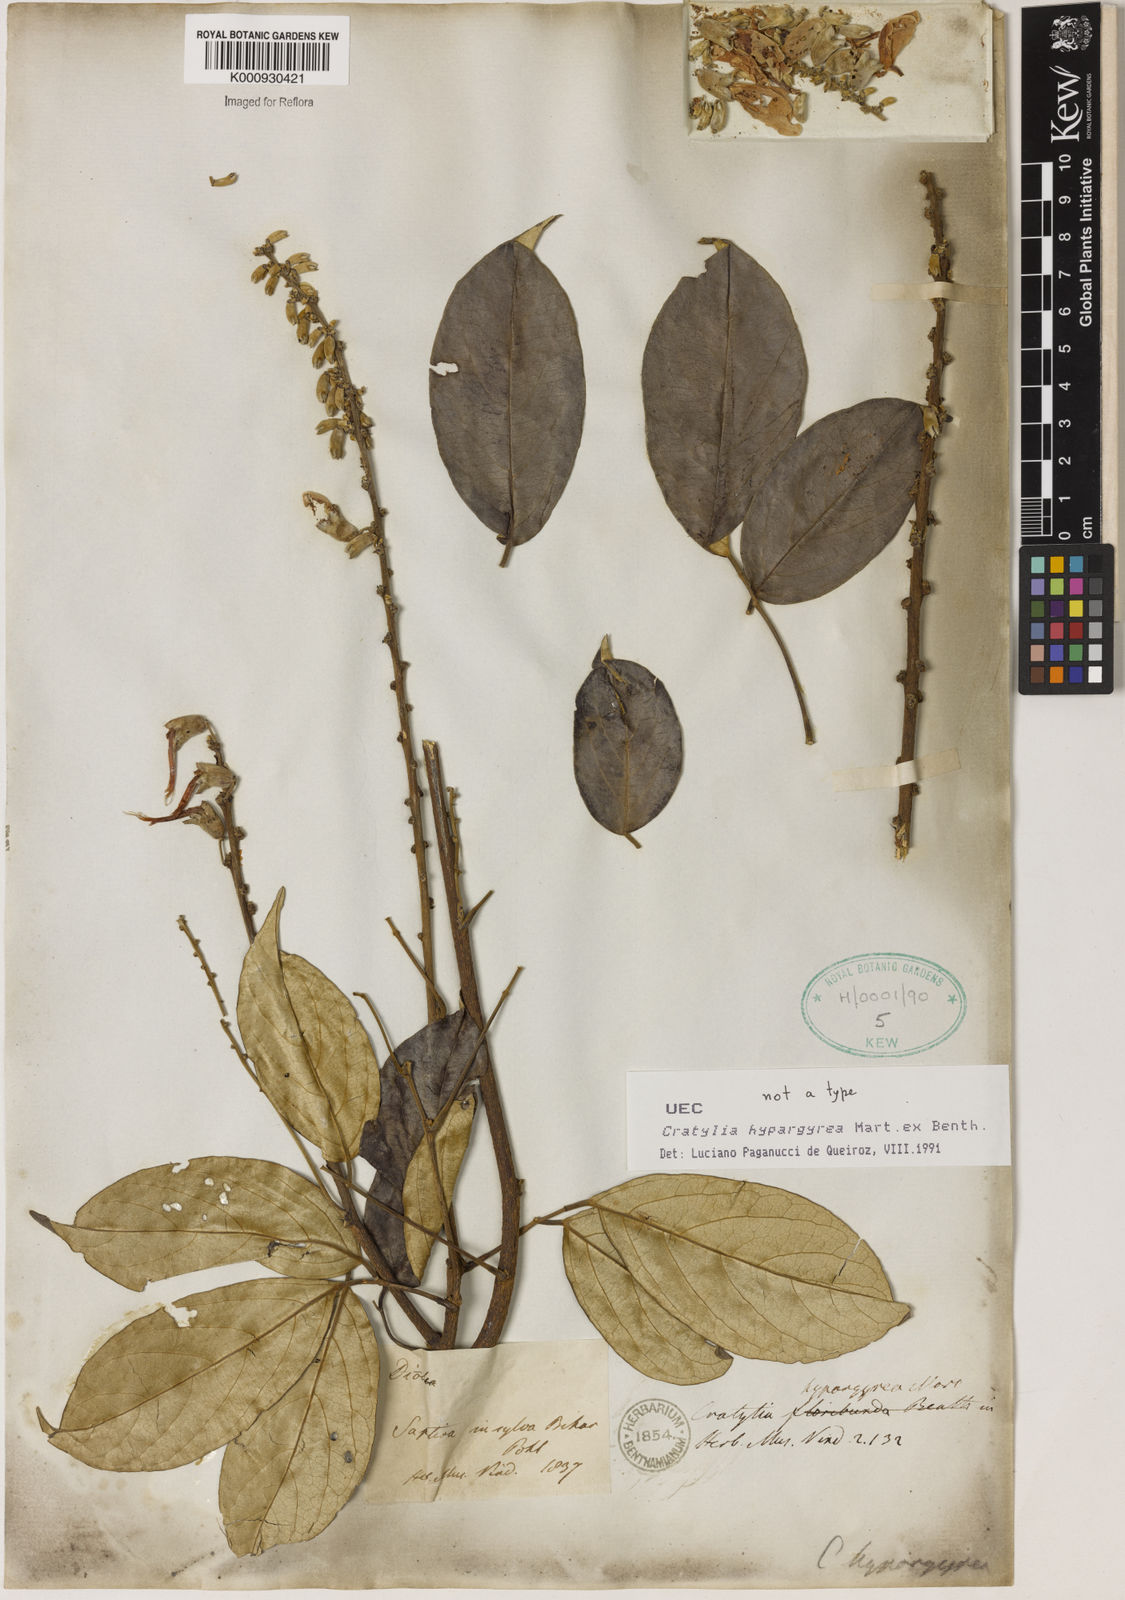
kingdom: Plantae
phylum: Tracheophyta
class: Magnoliopsida
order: Fabales
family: Fabaceae
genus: Cratylia
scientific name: Cratylia
